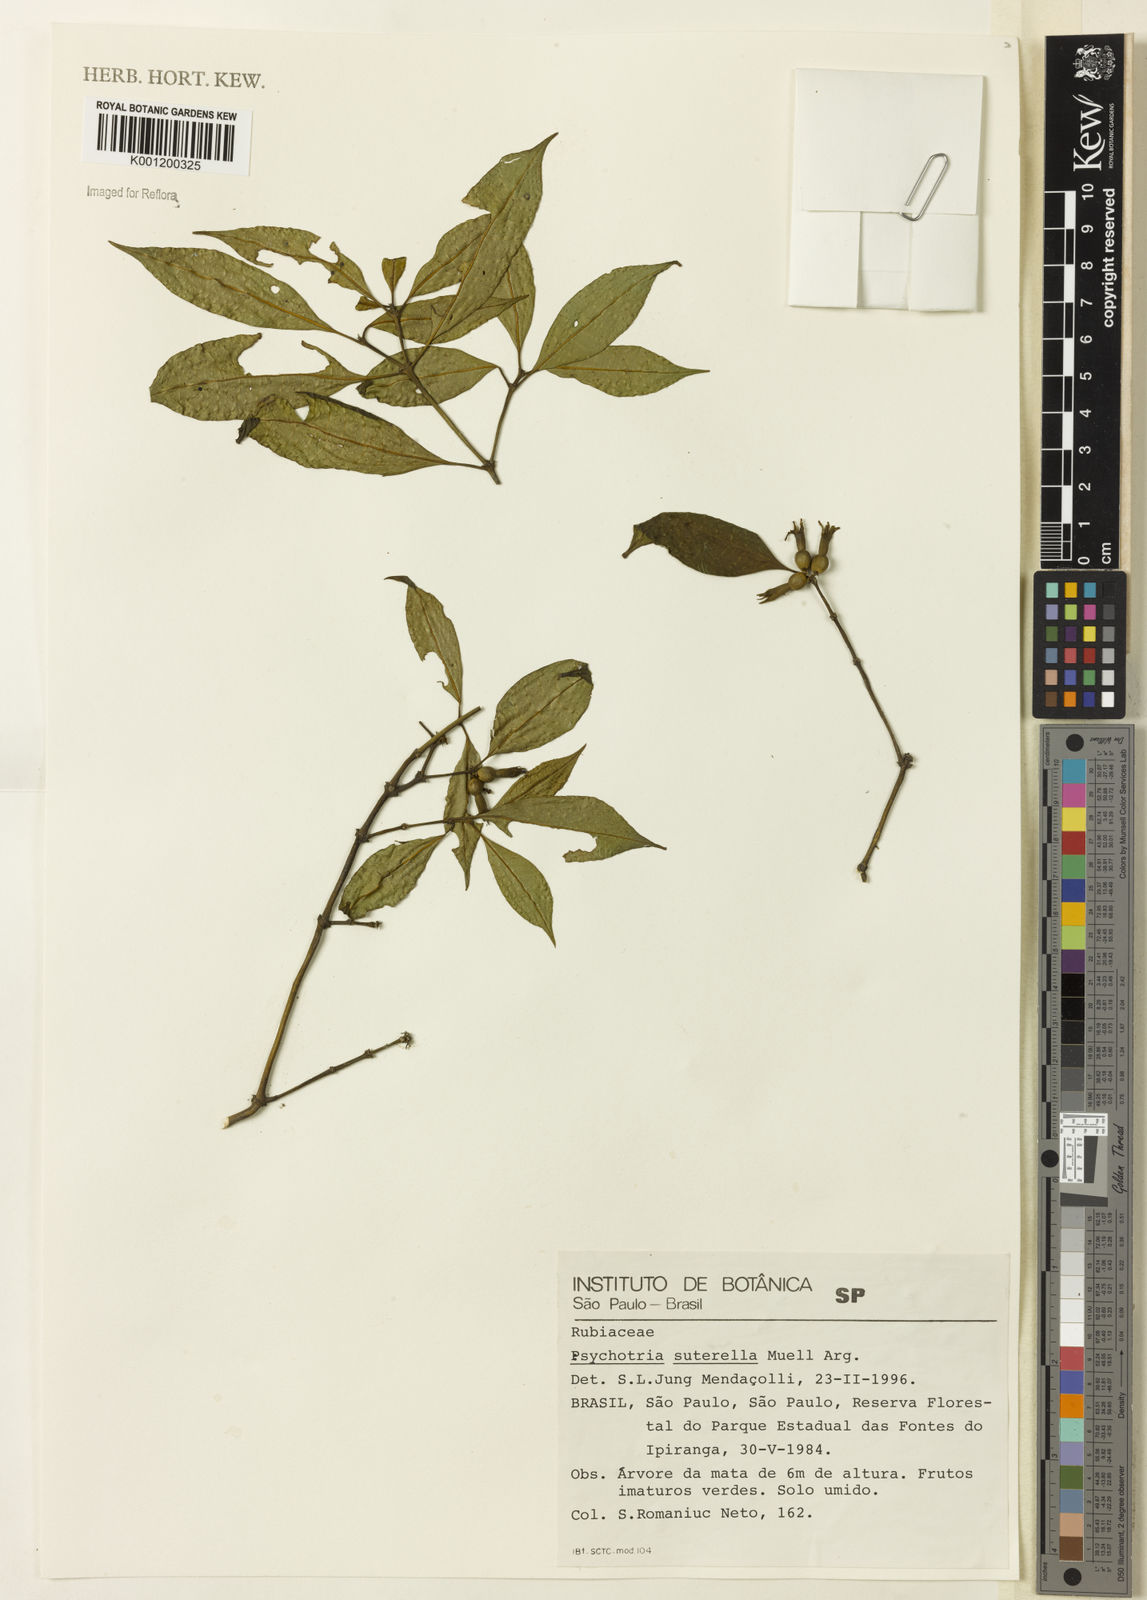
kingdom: Plantae
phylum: Tracheophyta
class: Magnoliopsida
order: Gentianales
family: Rubiaceae
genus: Psychotria
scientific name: Psychotria
